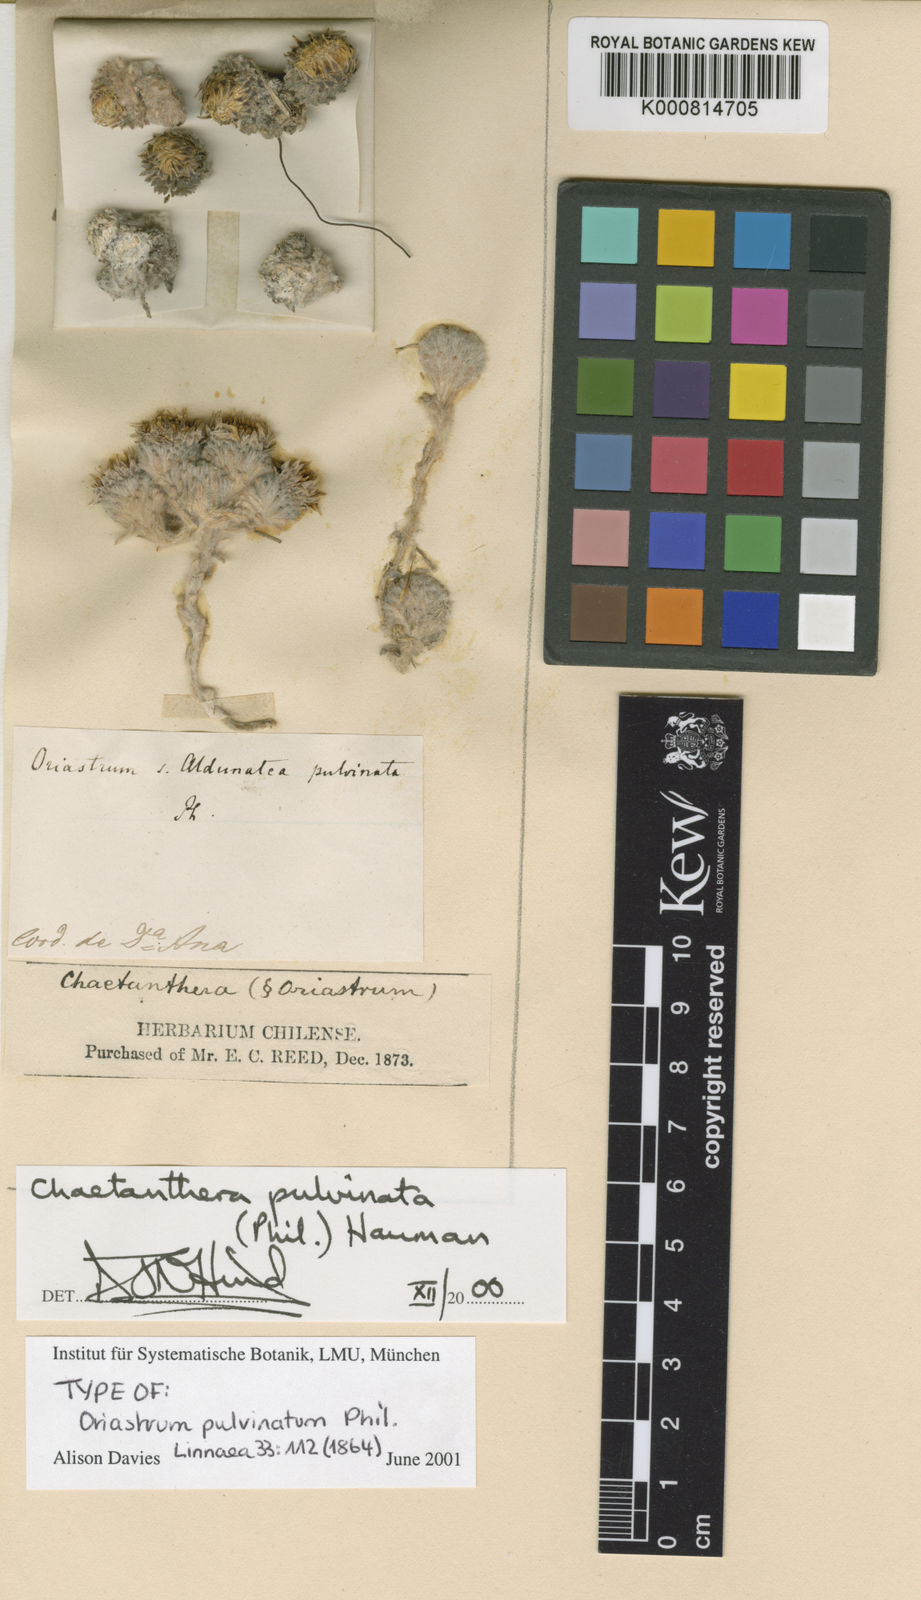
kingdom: Plantae
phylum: Tracheophyta
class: Magnoliopsida
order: Asterales
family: Asteraceae
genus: Oriastrum
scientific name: Oriastrum pulvinatum
